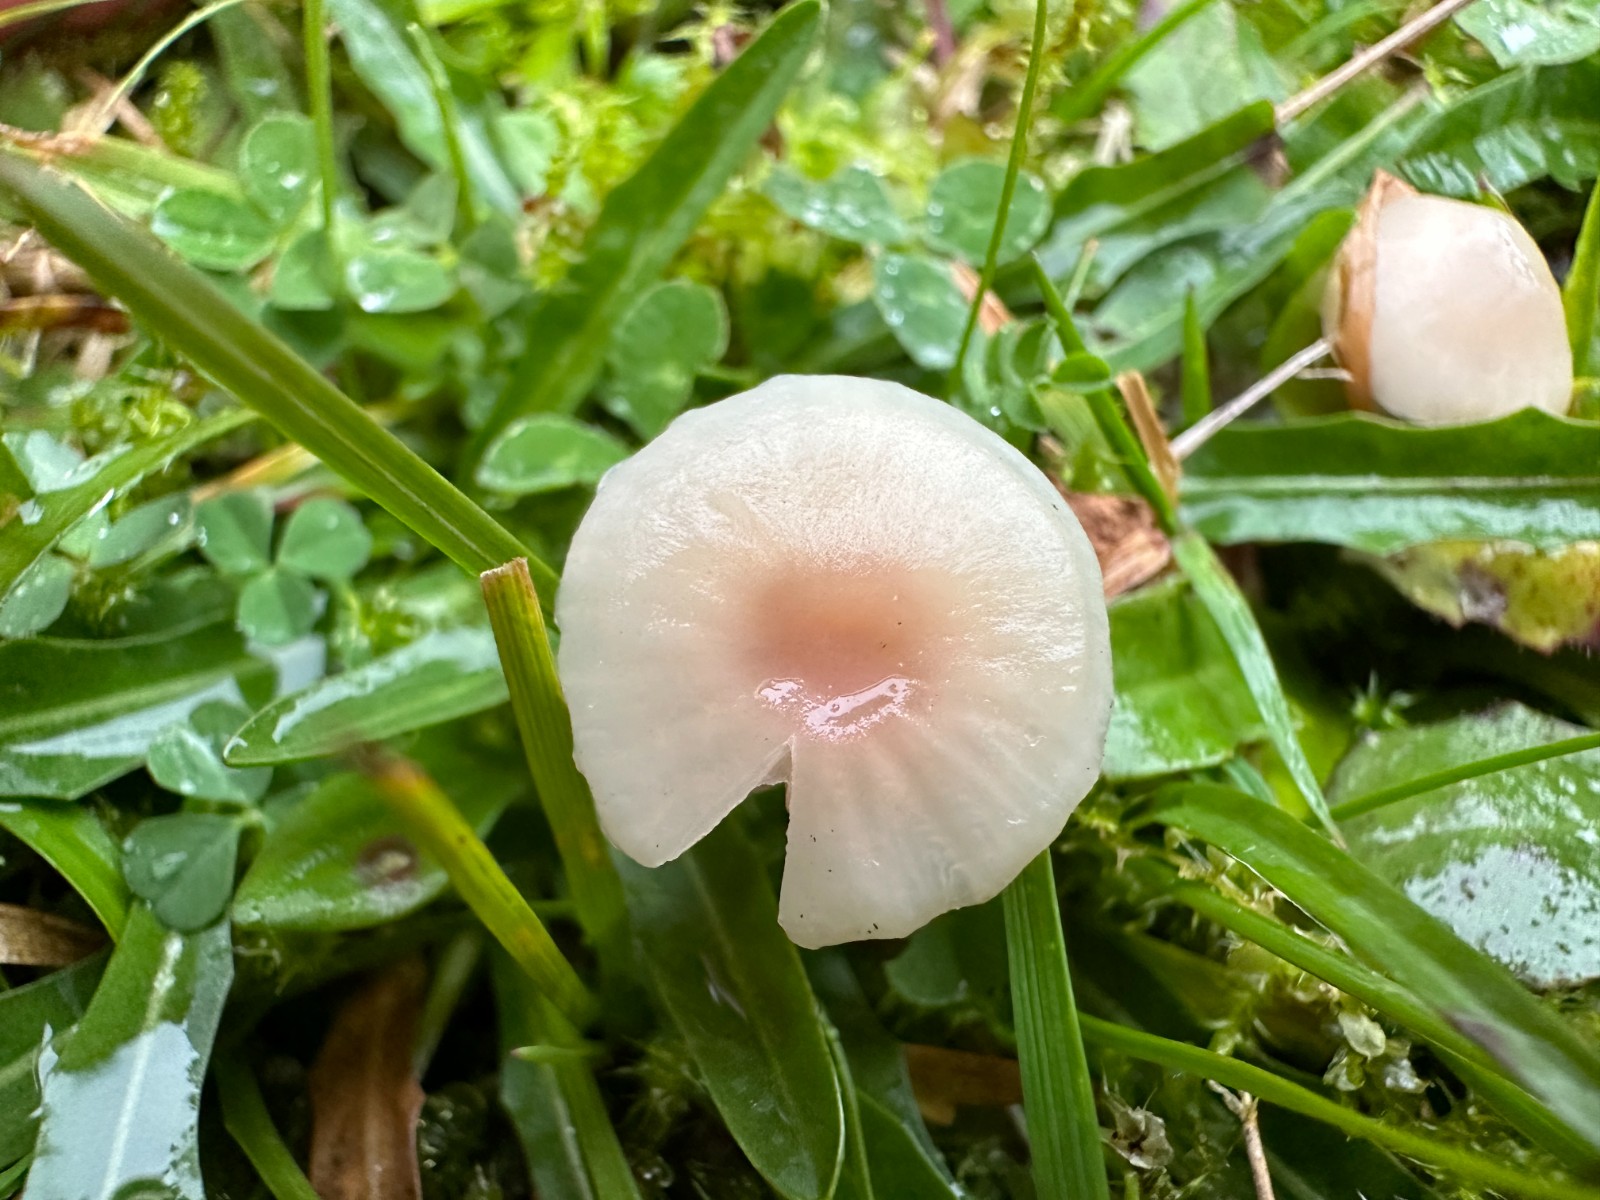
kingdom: Fungi
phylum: Basidiomycota
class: Agaricomycetes
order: Agaricales
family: Hygrophoraceae
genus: Cuphophyllus
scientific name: Cuphophyllus virgineus
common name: brunøjet vokshat
